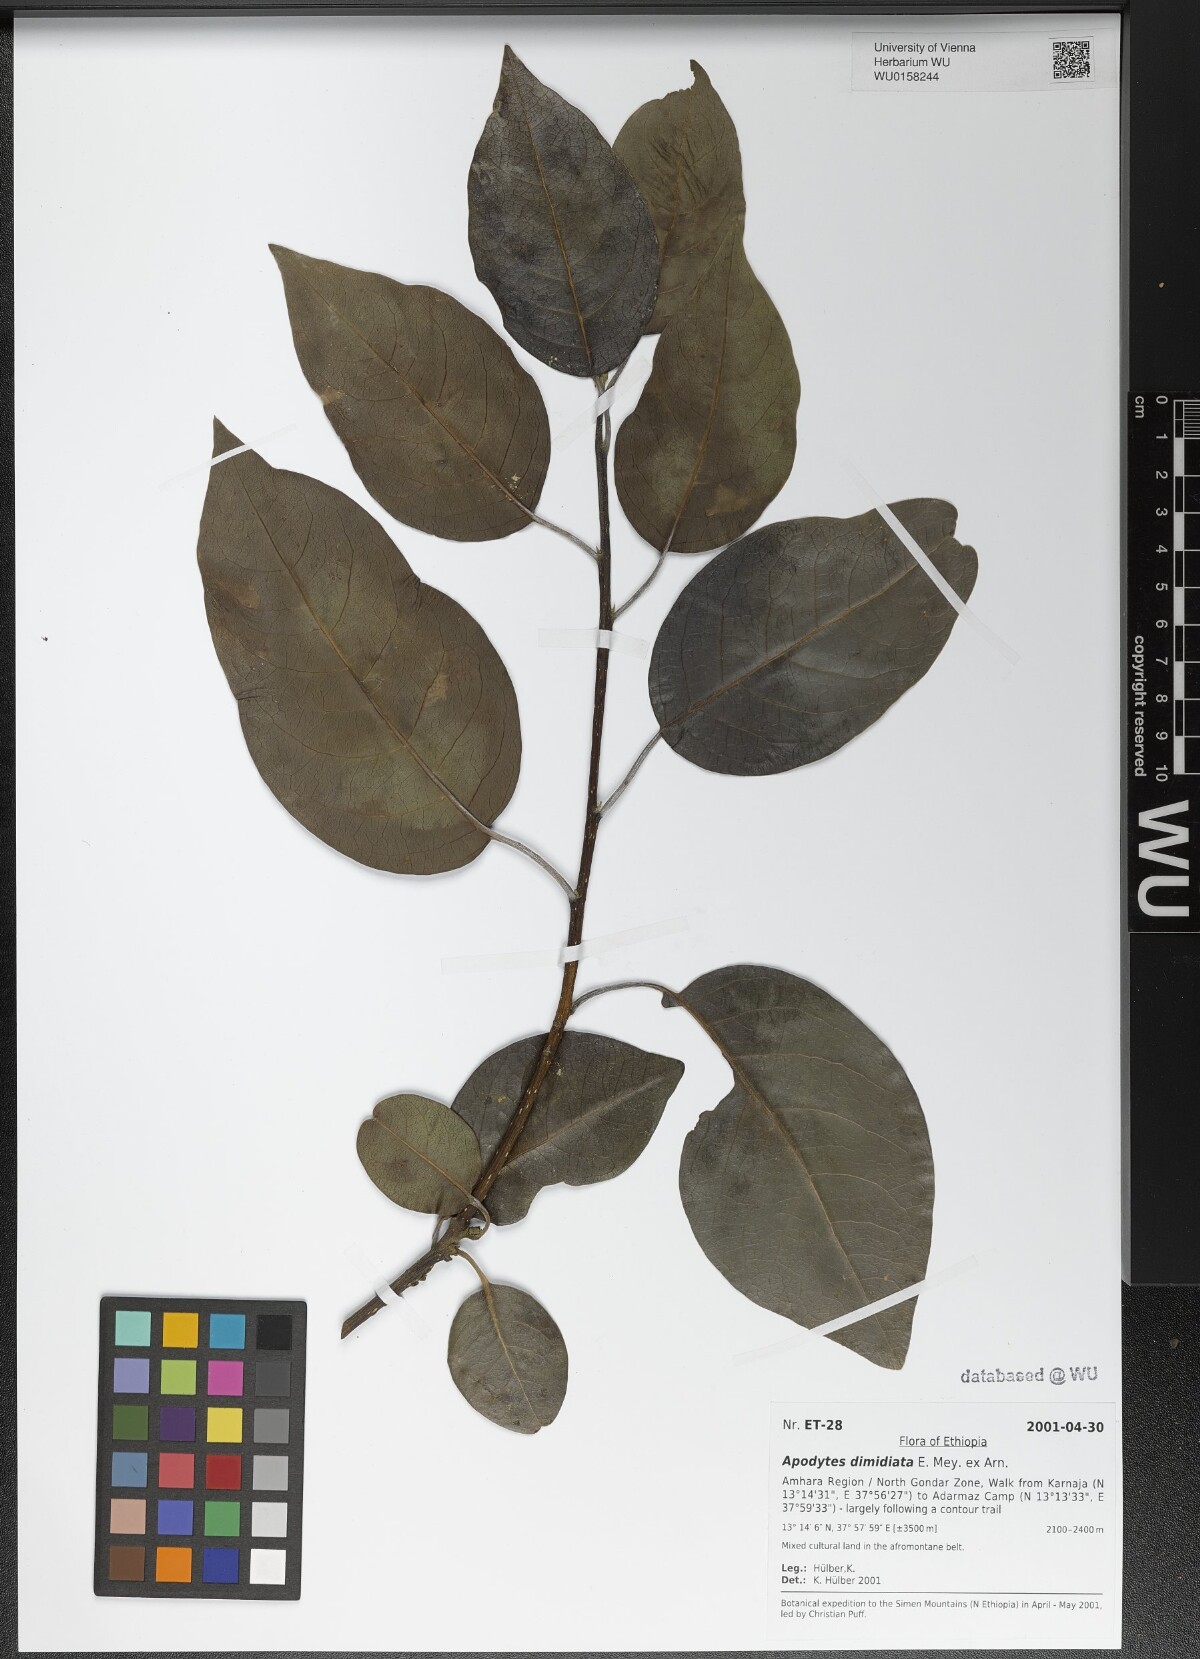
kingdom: Plantae
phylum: Tracheophyta
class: Magnoliopsida
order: Metteniusales
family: Metteniusaceae
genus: Apodytes
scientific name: Apodytes dimidiata
